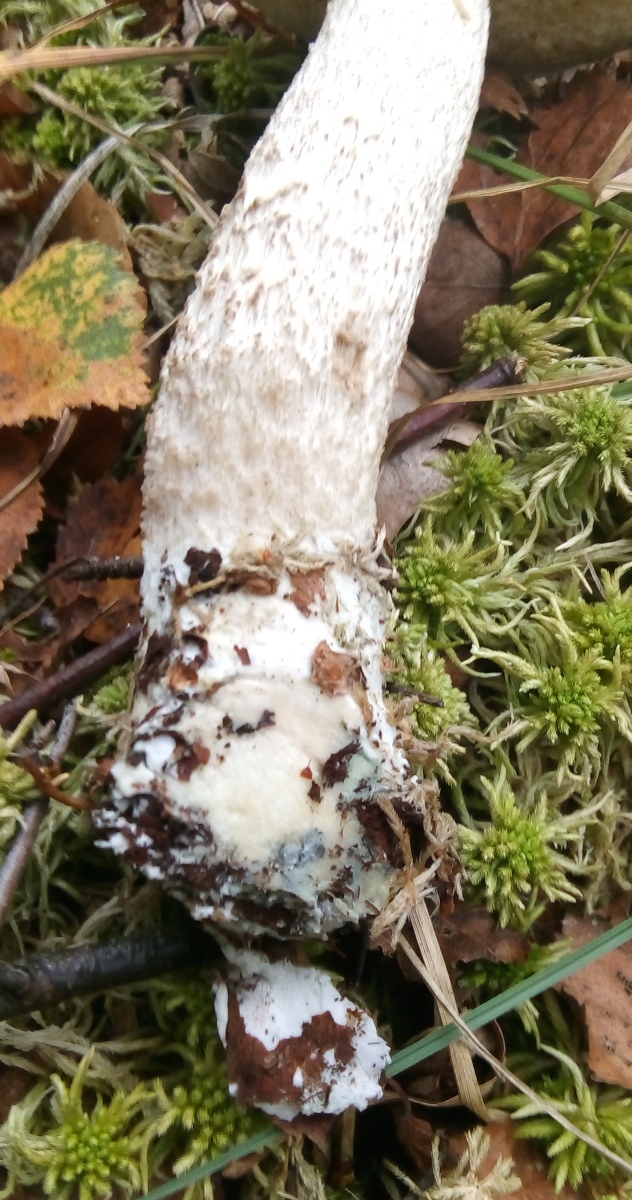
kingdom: Fungi
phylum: Basidiomycota
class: Agaricomycetes
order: Boletales
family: Boletaceae
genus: Leccinum
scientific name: Leccinum scabrum
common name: hvid skælrørhat
